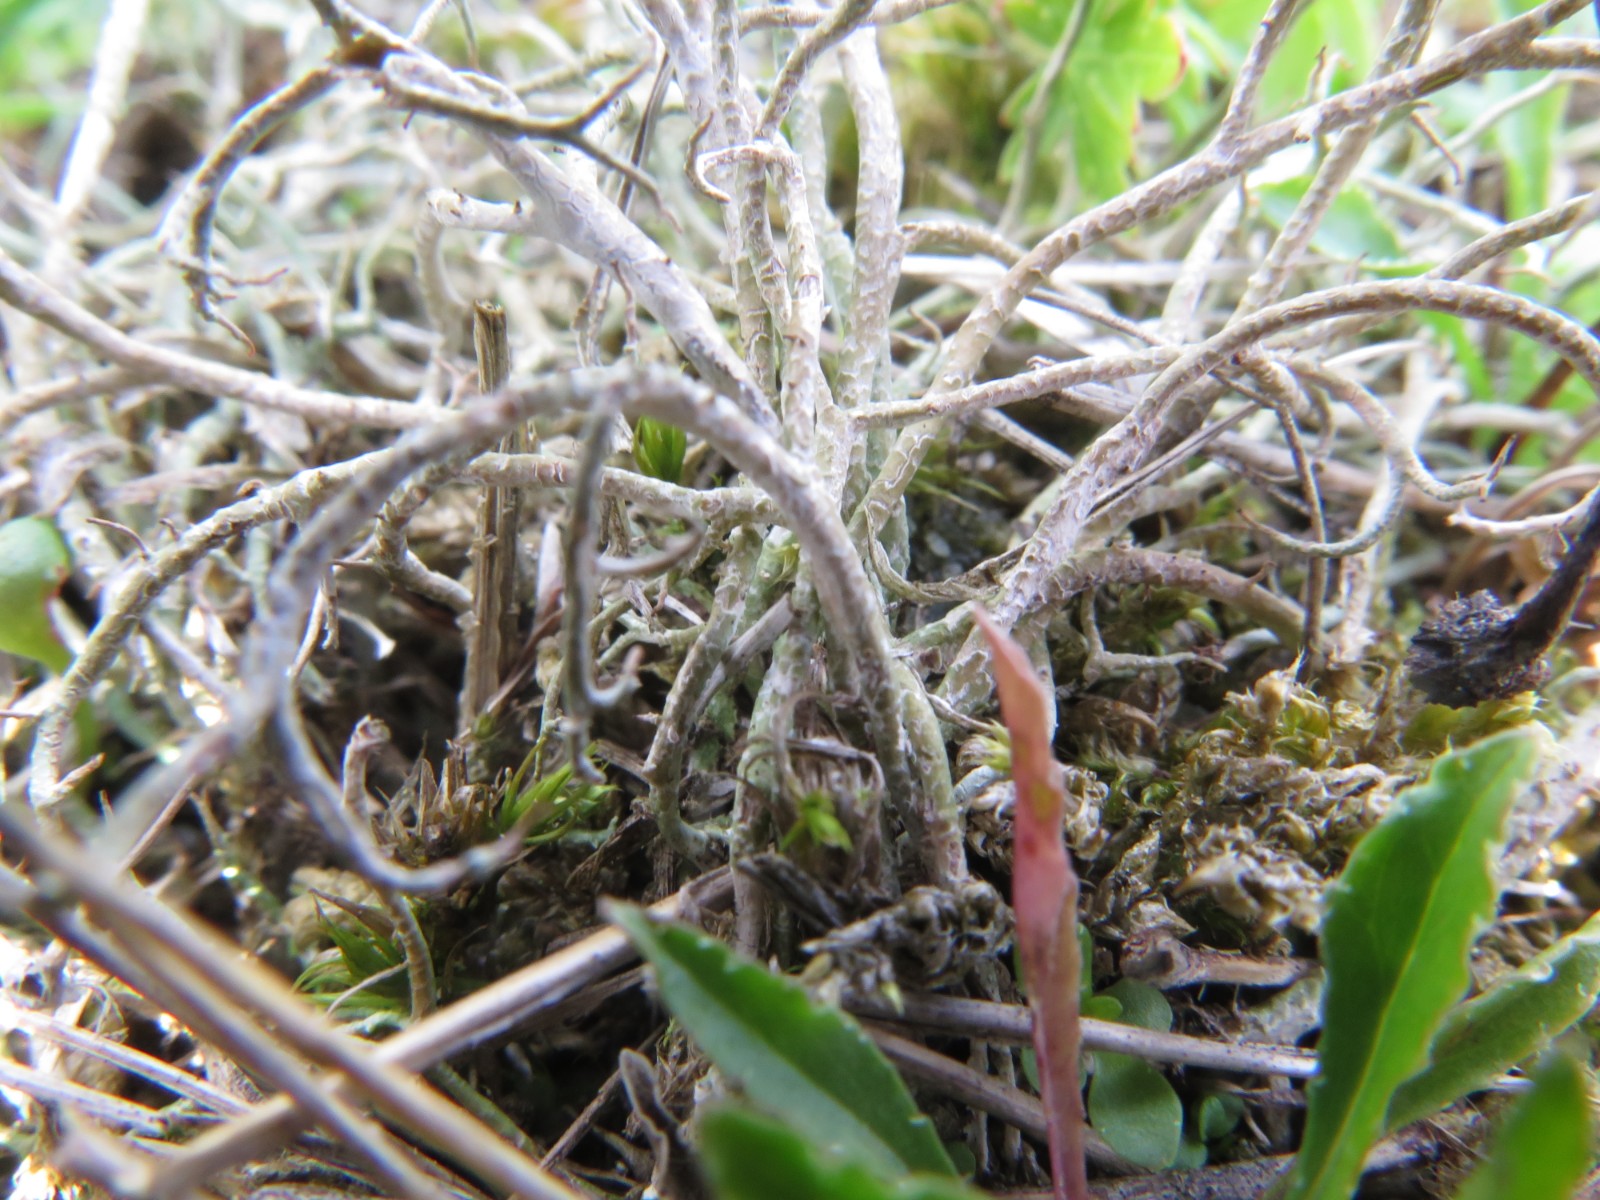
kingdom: Fungi
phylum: Ascomycota
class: Lecanoromycetes
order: Lecanorales
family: Cladoniaceae
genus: Cladonia
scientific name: Cladonia furcata
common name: kløftet bægerlav
